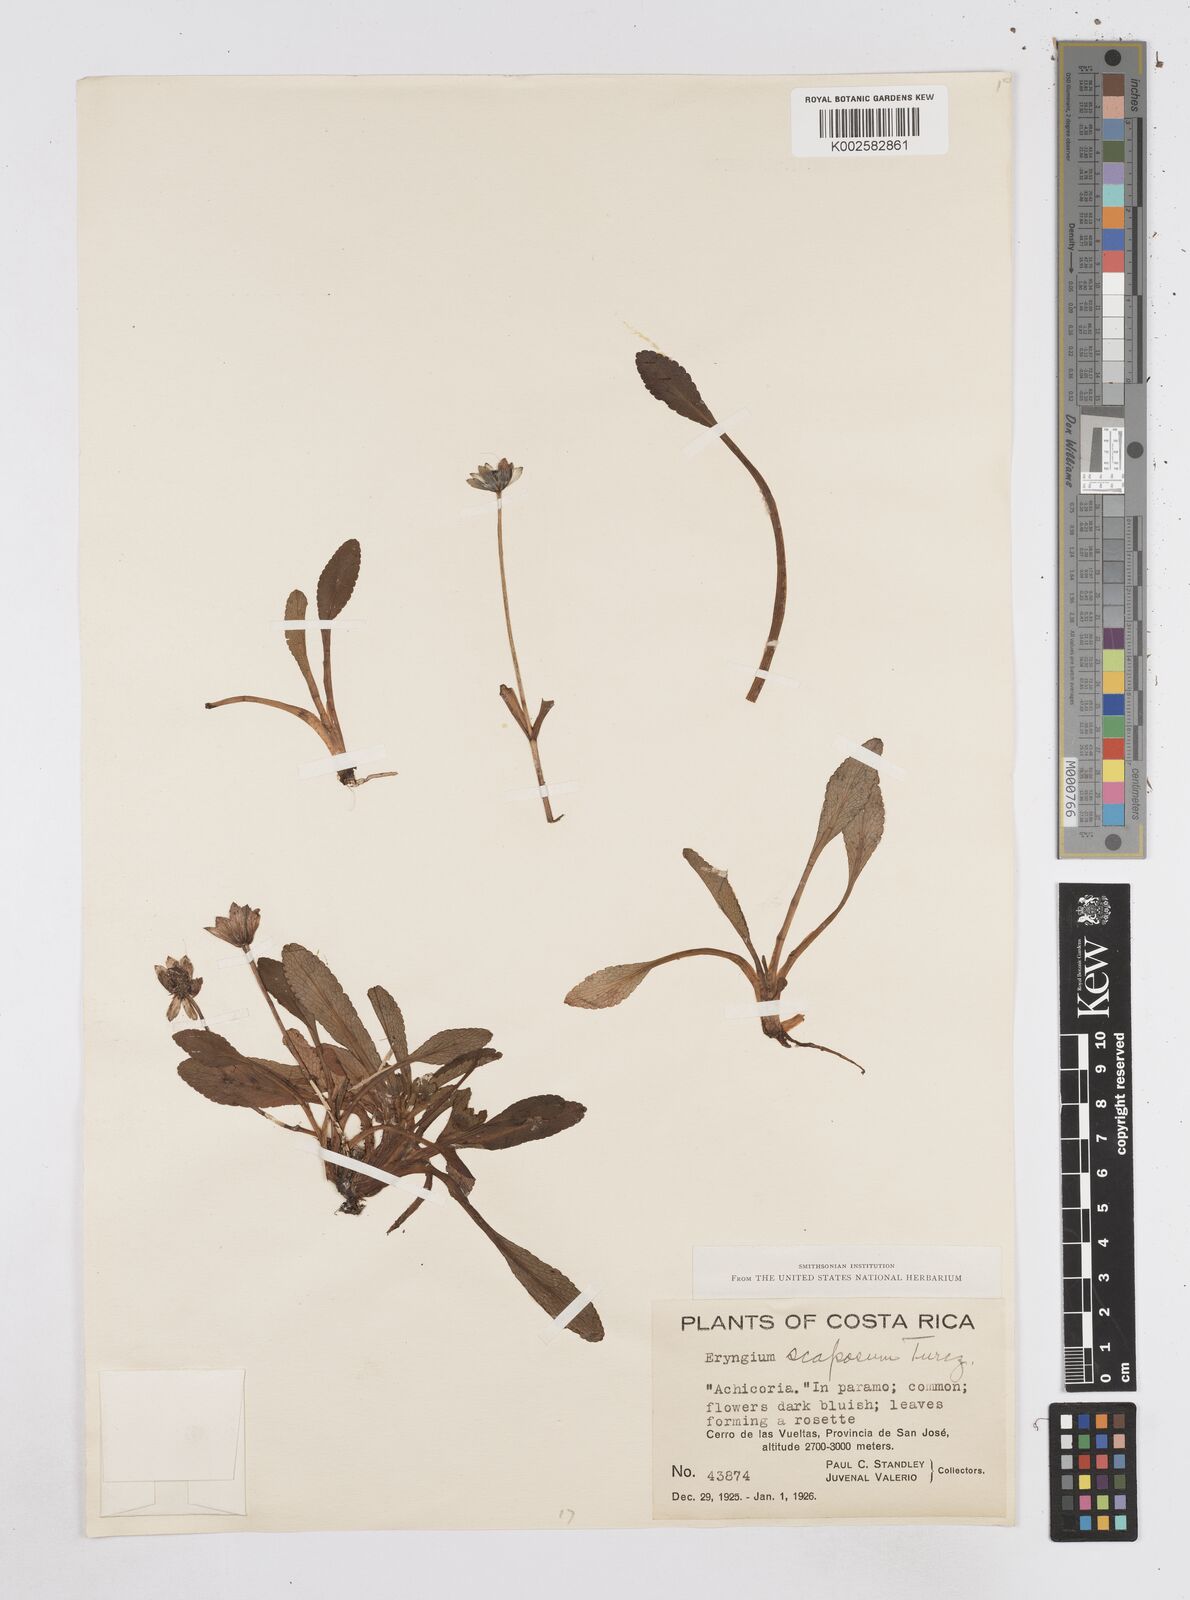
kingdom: Plantae
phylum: Tracheophyta
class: Magnoliopsida
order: Apiales
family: Apiaceae
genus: Eryngium
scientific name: Eryngium scaposum
